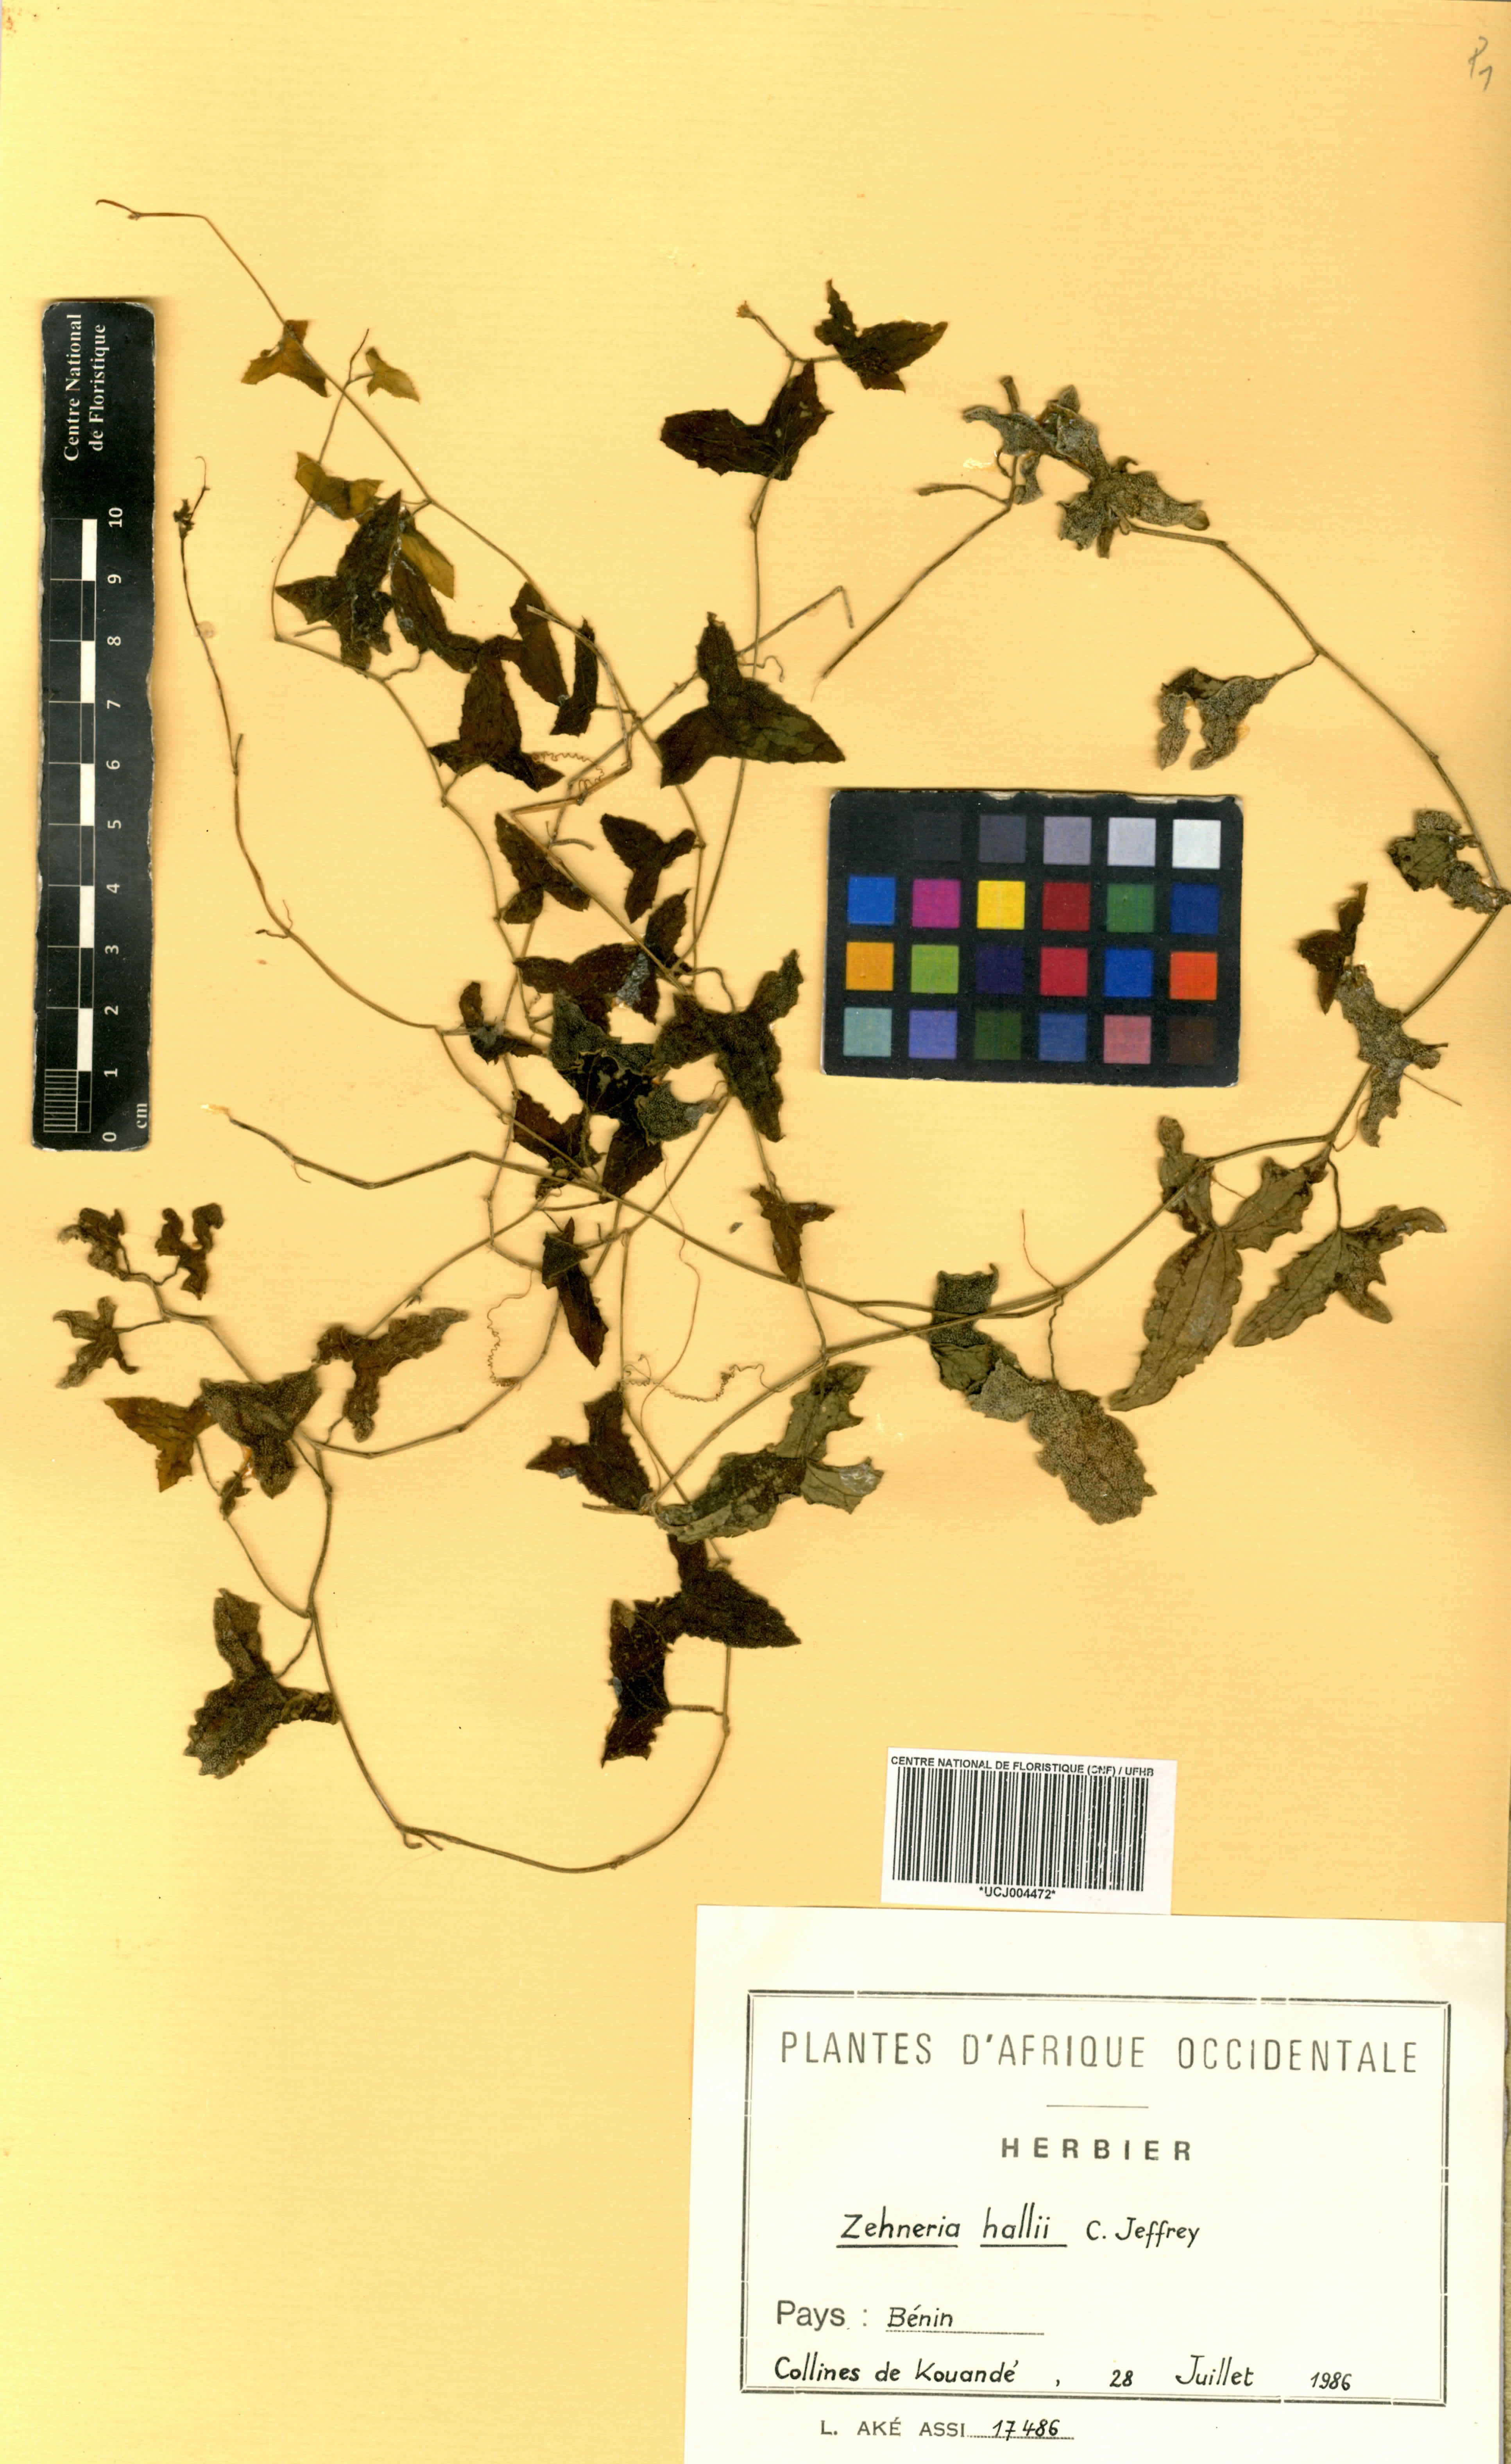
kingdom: Plantae
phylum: Tracheophyta
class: Magnoliopsida
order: Cucurbitales
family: Cucurbitaceae
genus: Zehneria
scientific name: Zehneria hallii
